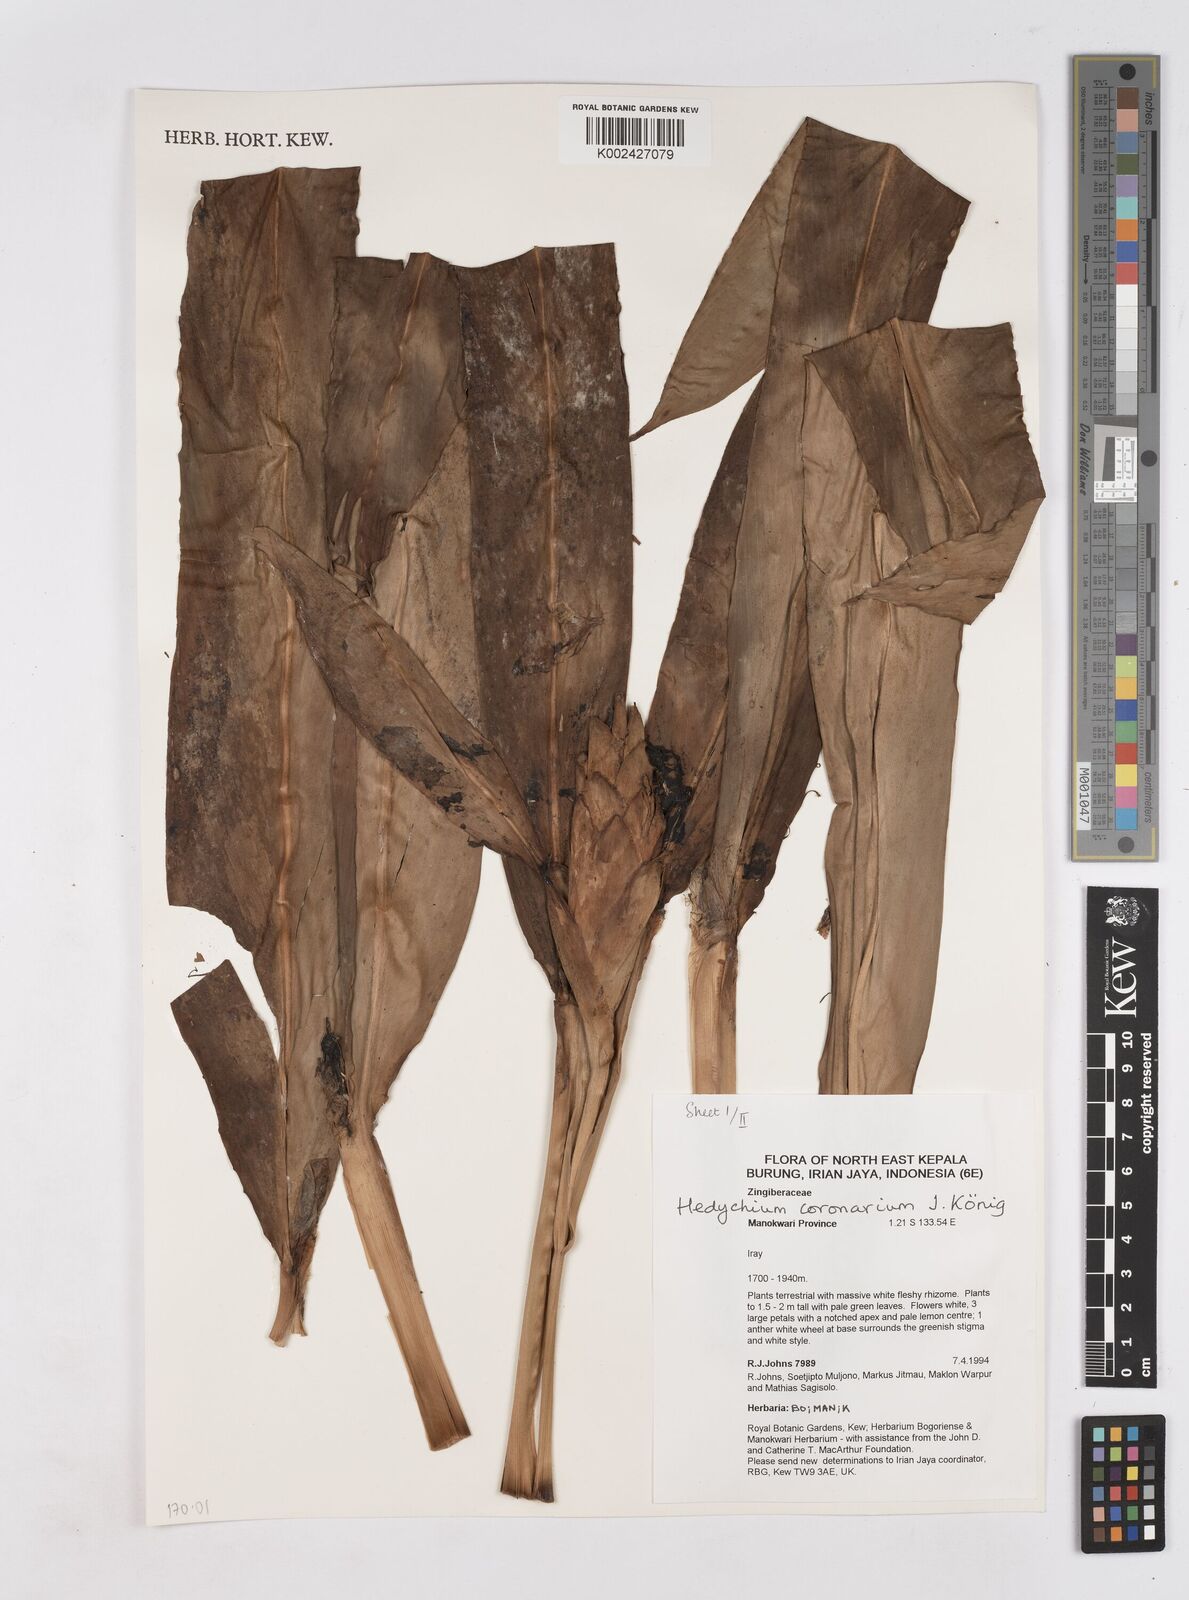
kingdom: Plantae
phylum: Tracheophyta
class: Liliopsida
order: Zingiberales
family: Zingiberaceae
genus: Hedychium
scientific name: Hedychium coronarium
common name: White garland-lily
